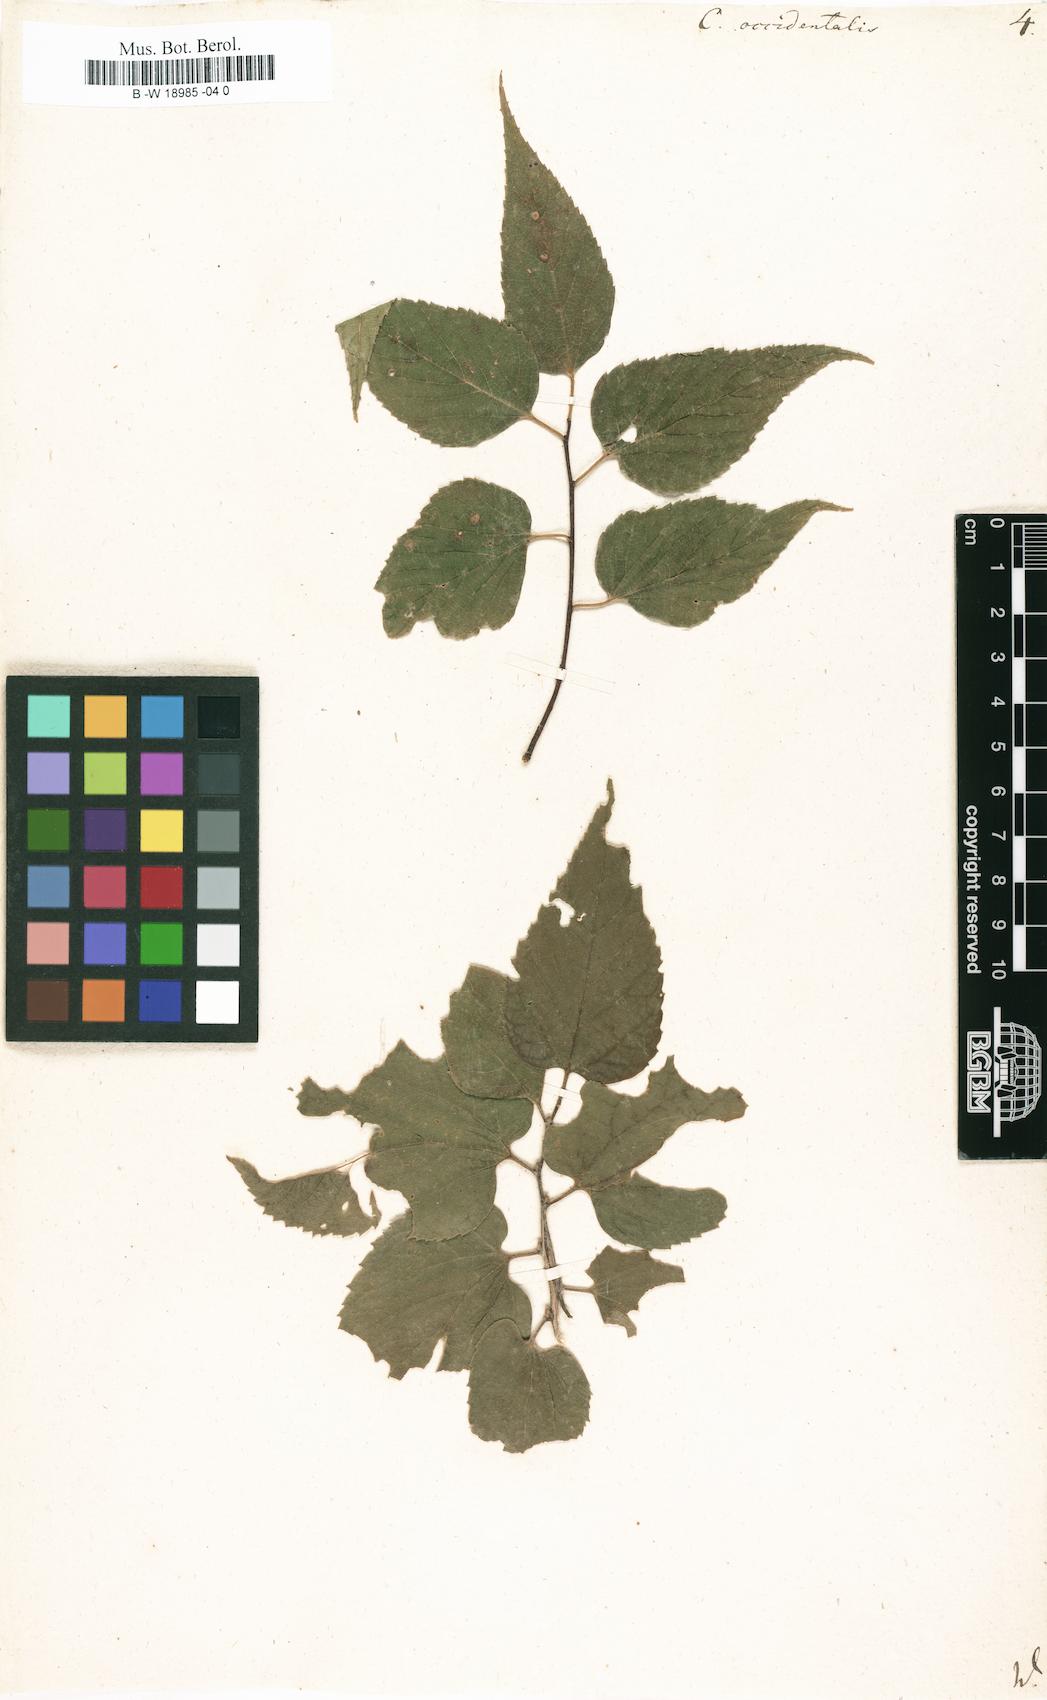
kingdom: Plantae
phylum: Tracheophyta
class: Magnoliopsida
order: Rosales
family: Cannabaceae
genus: Celtis
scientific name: Celtis occidentalis
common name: Common hackberry
